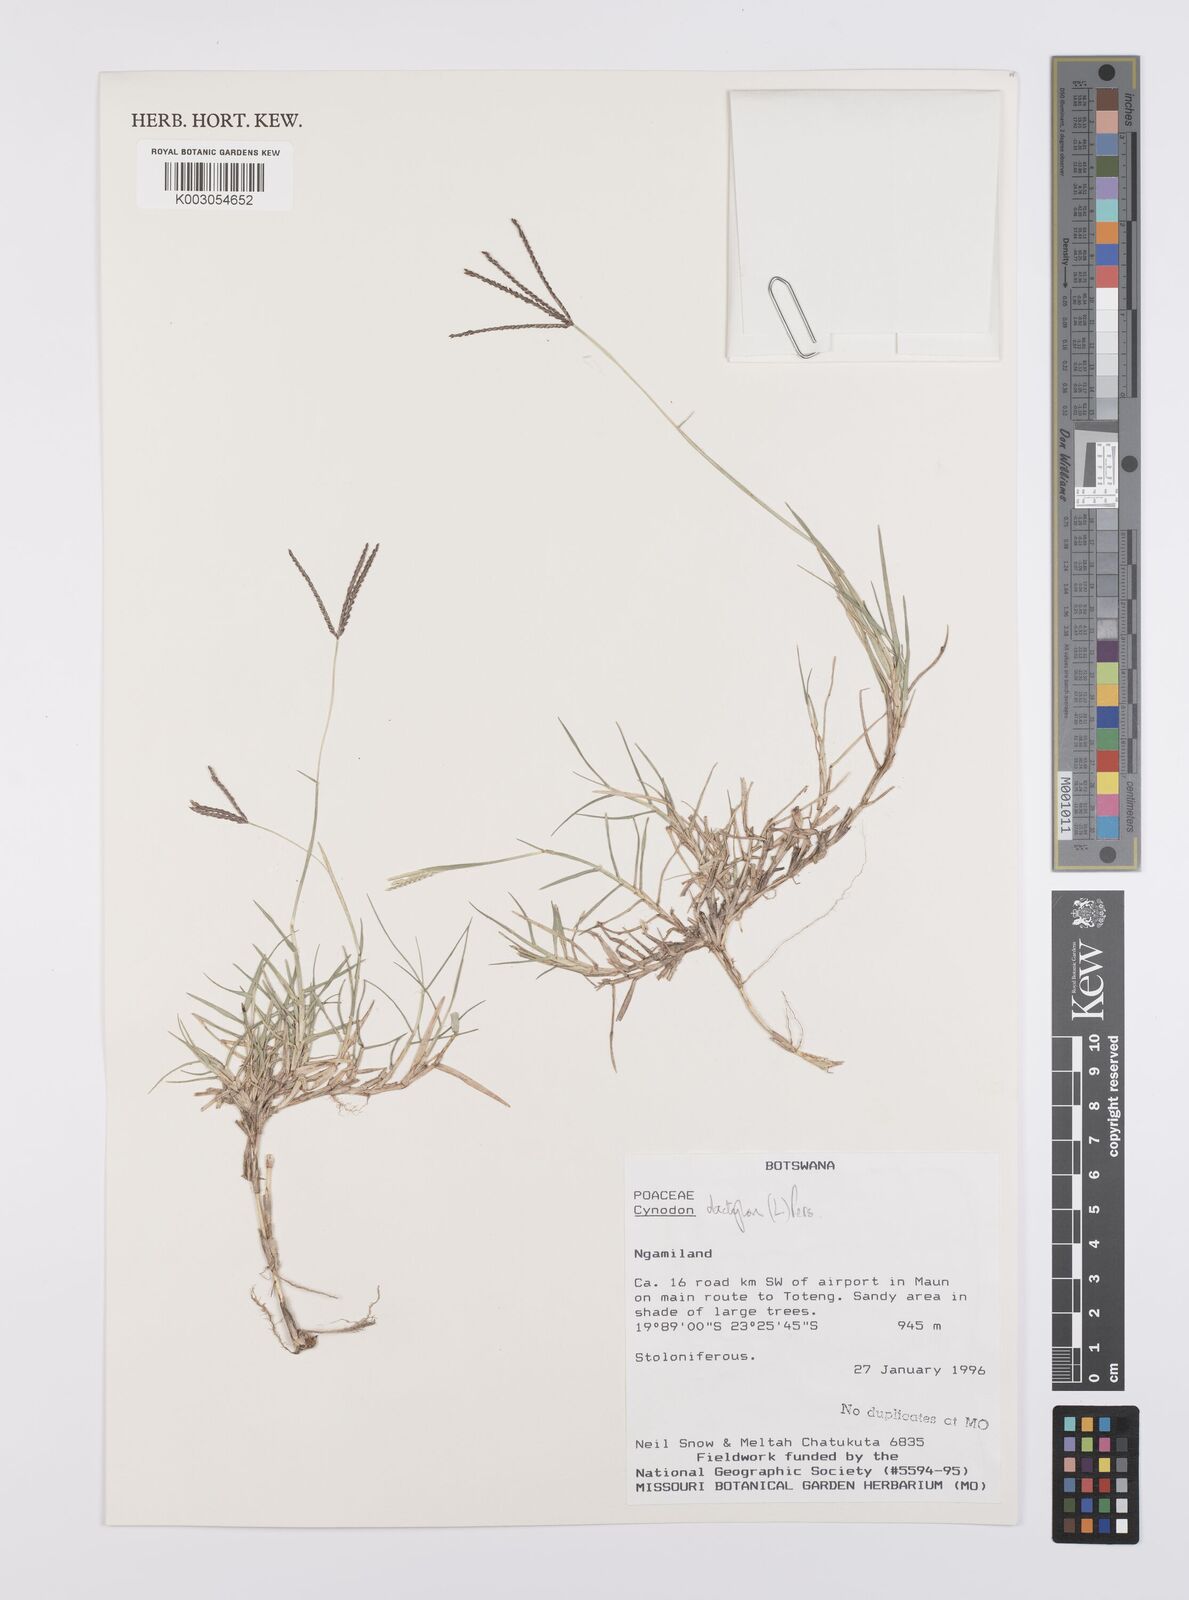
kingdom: Plantae
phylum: Tracheophyta
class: Liliopsida
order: Poales
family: Poaceae
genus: Cynodon
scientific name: Cynodon dactylon
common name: Bermuda grass
